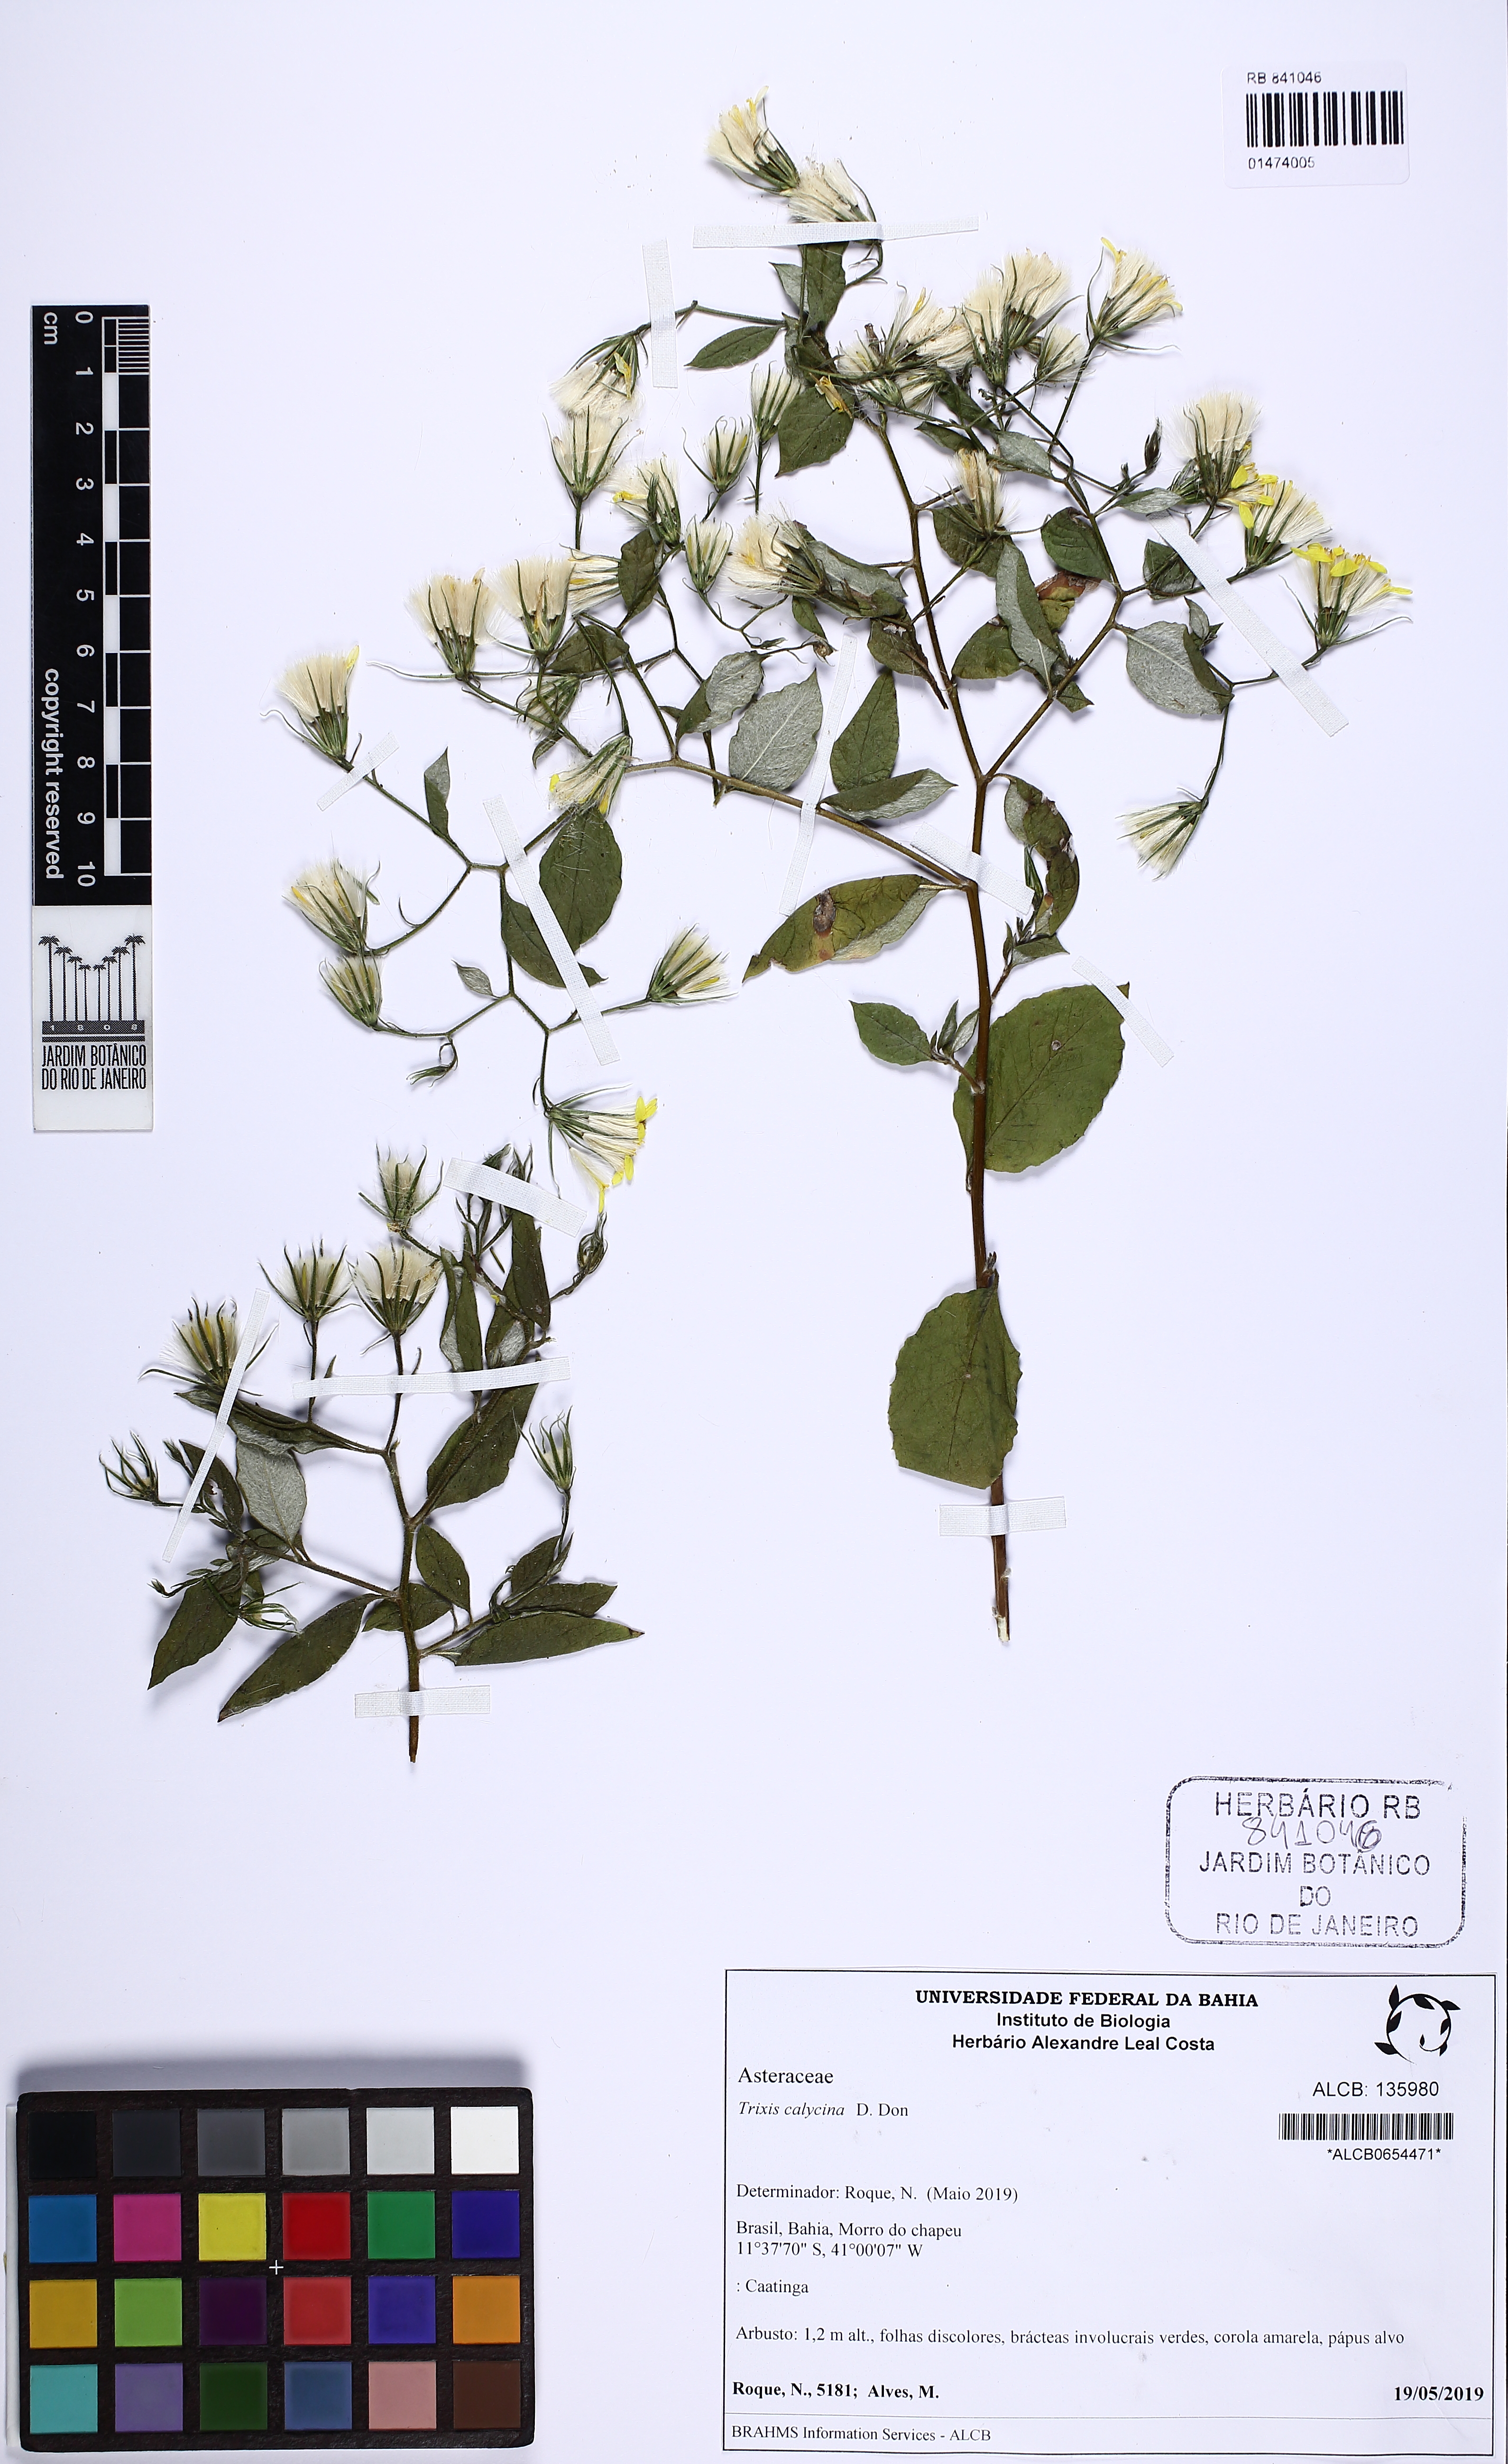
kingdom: Plantae
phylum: Tracheophyta
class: Magnoliopsida
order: Asterales
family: Asteraceae
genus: Trixis
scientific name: Trixis calycina
